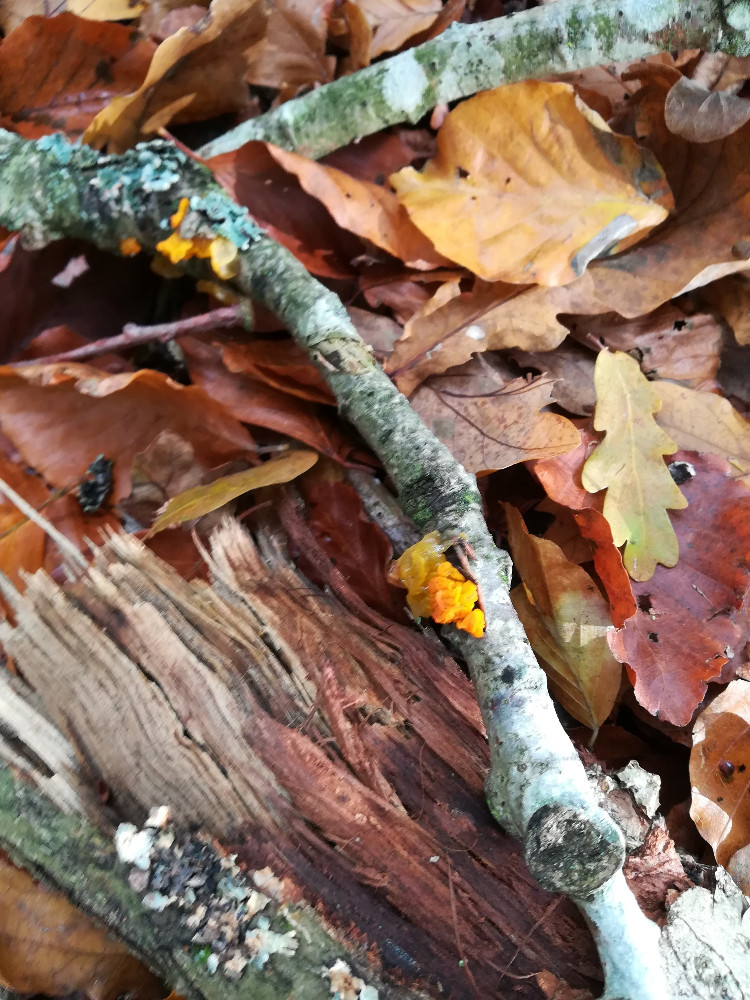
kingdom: Fungi
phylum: Basidiomycota
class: Tremellomycetes
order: Tremellales
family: Tremellaceae
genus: Tremella
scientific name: Tremella mesenterica
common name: gul bævresvamp
